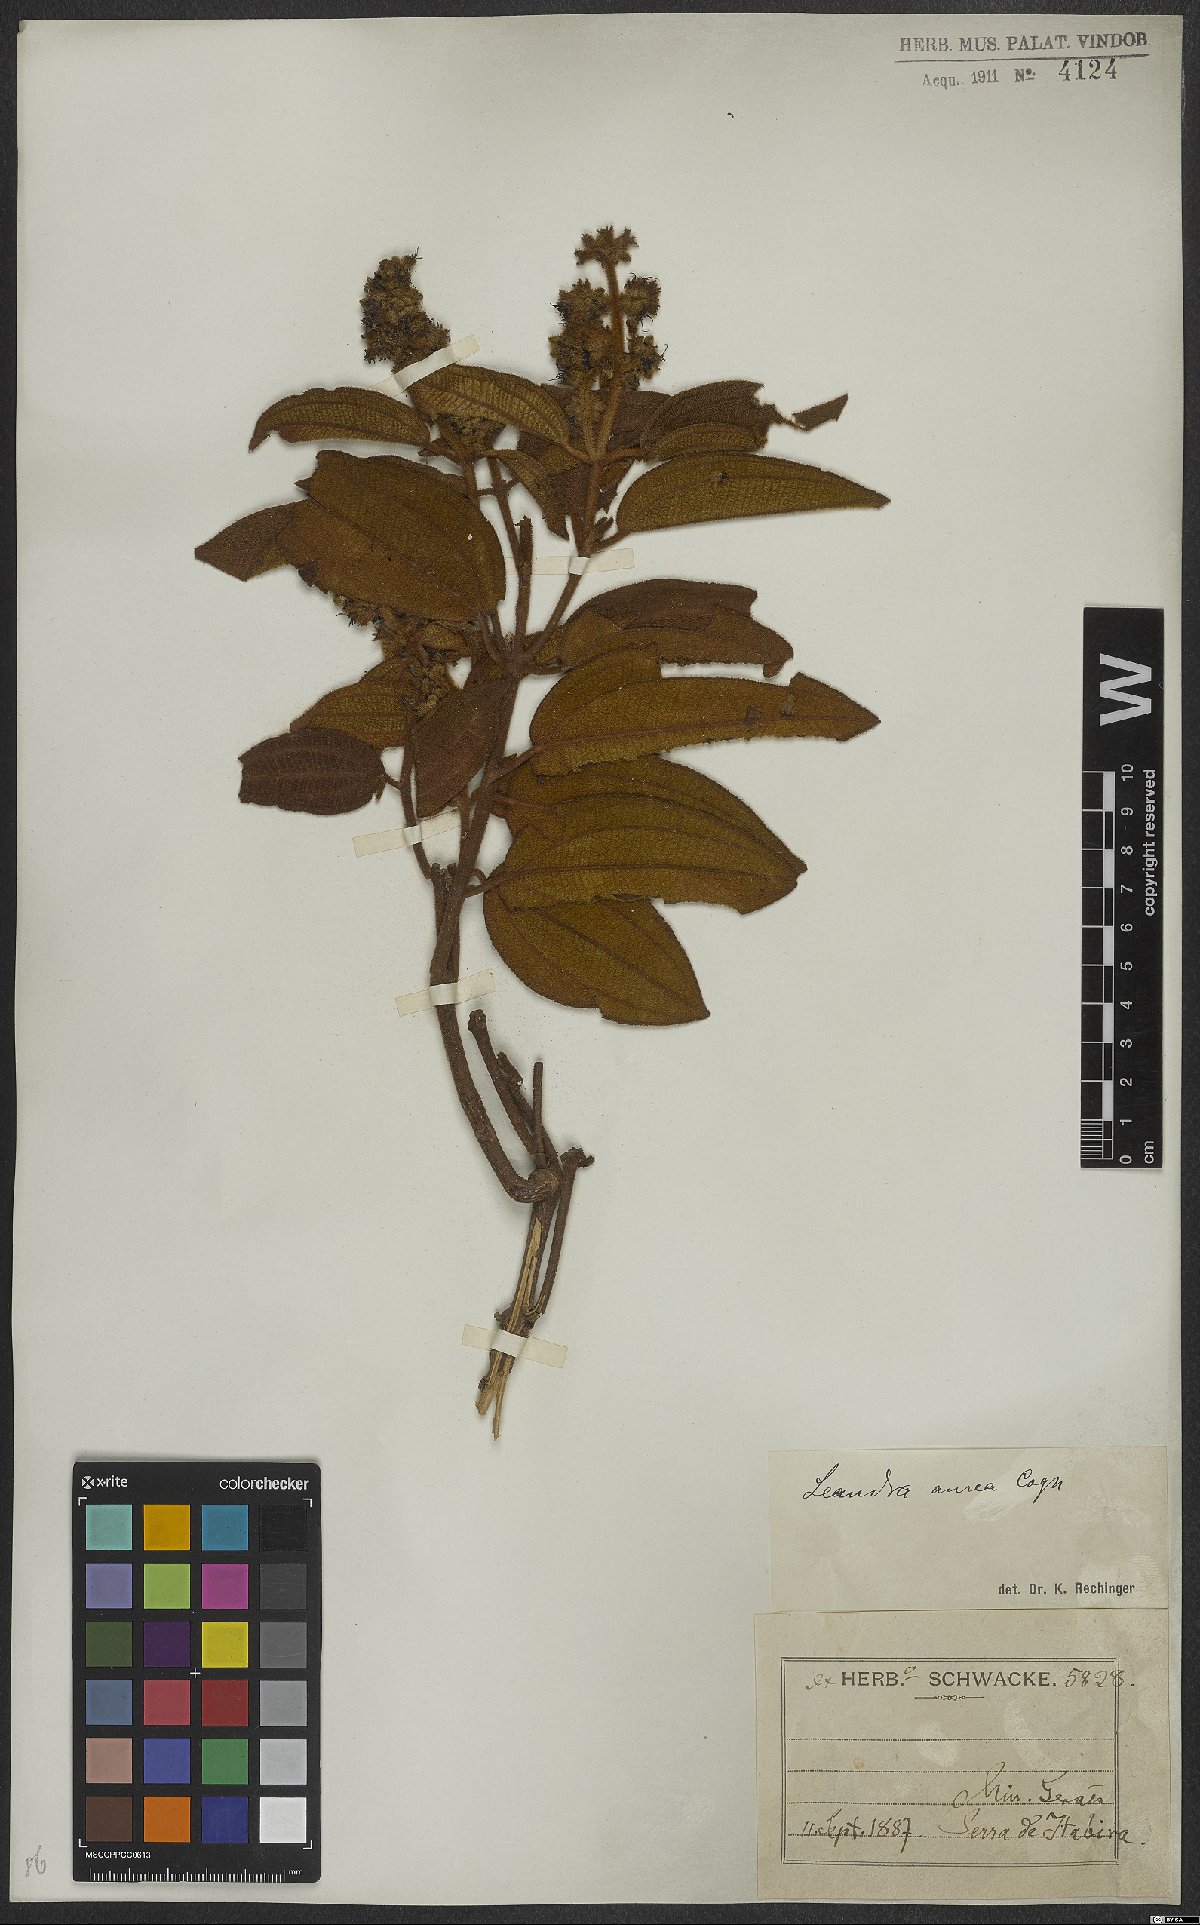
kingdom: Plantae
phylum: Tracheophyta
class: Magnoliopsida
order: Myrtales
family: Melastomataceae
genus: Miconia
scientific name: Miconia auricoma
